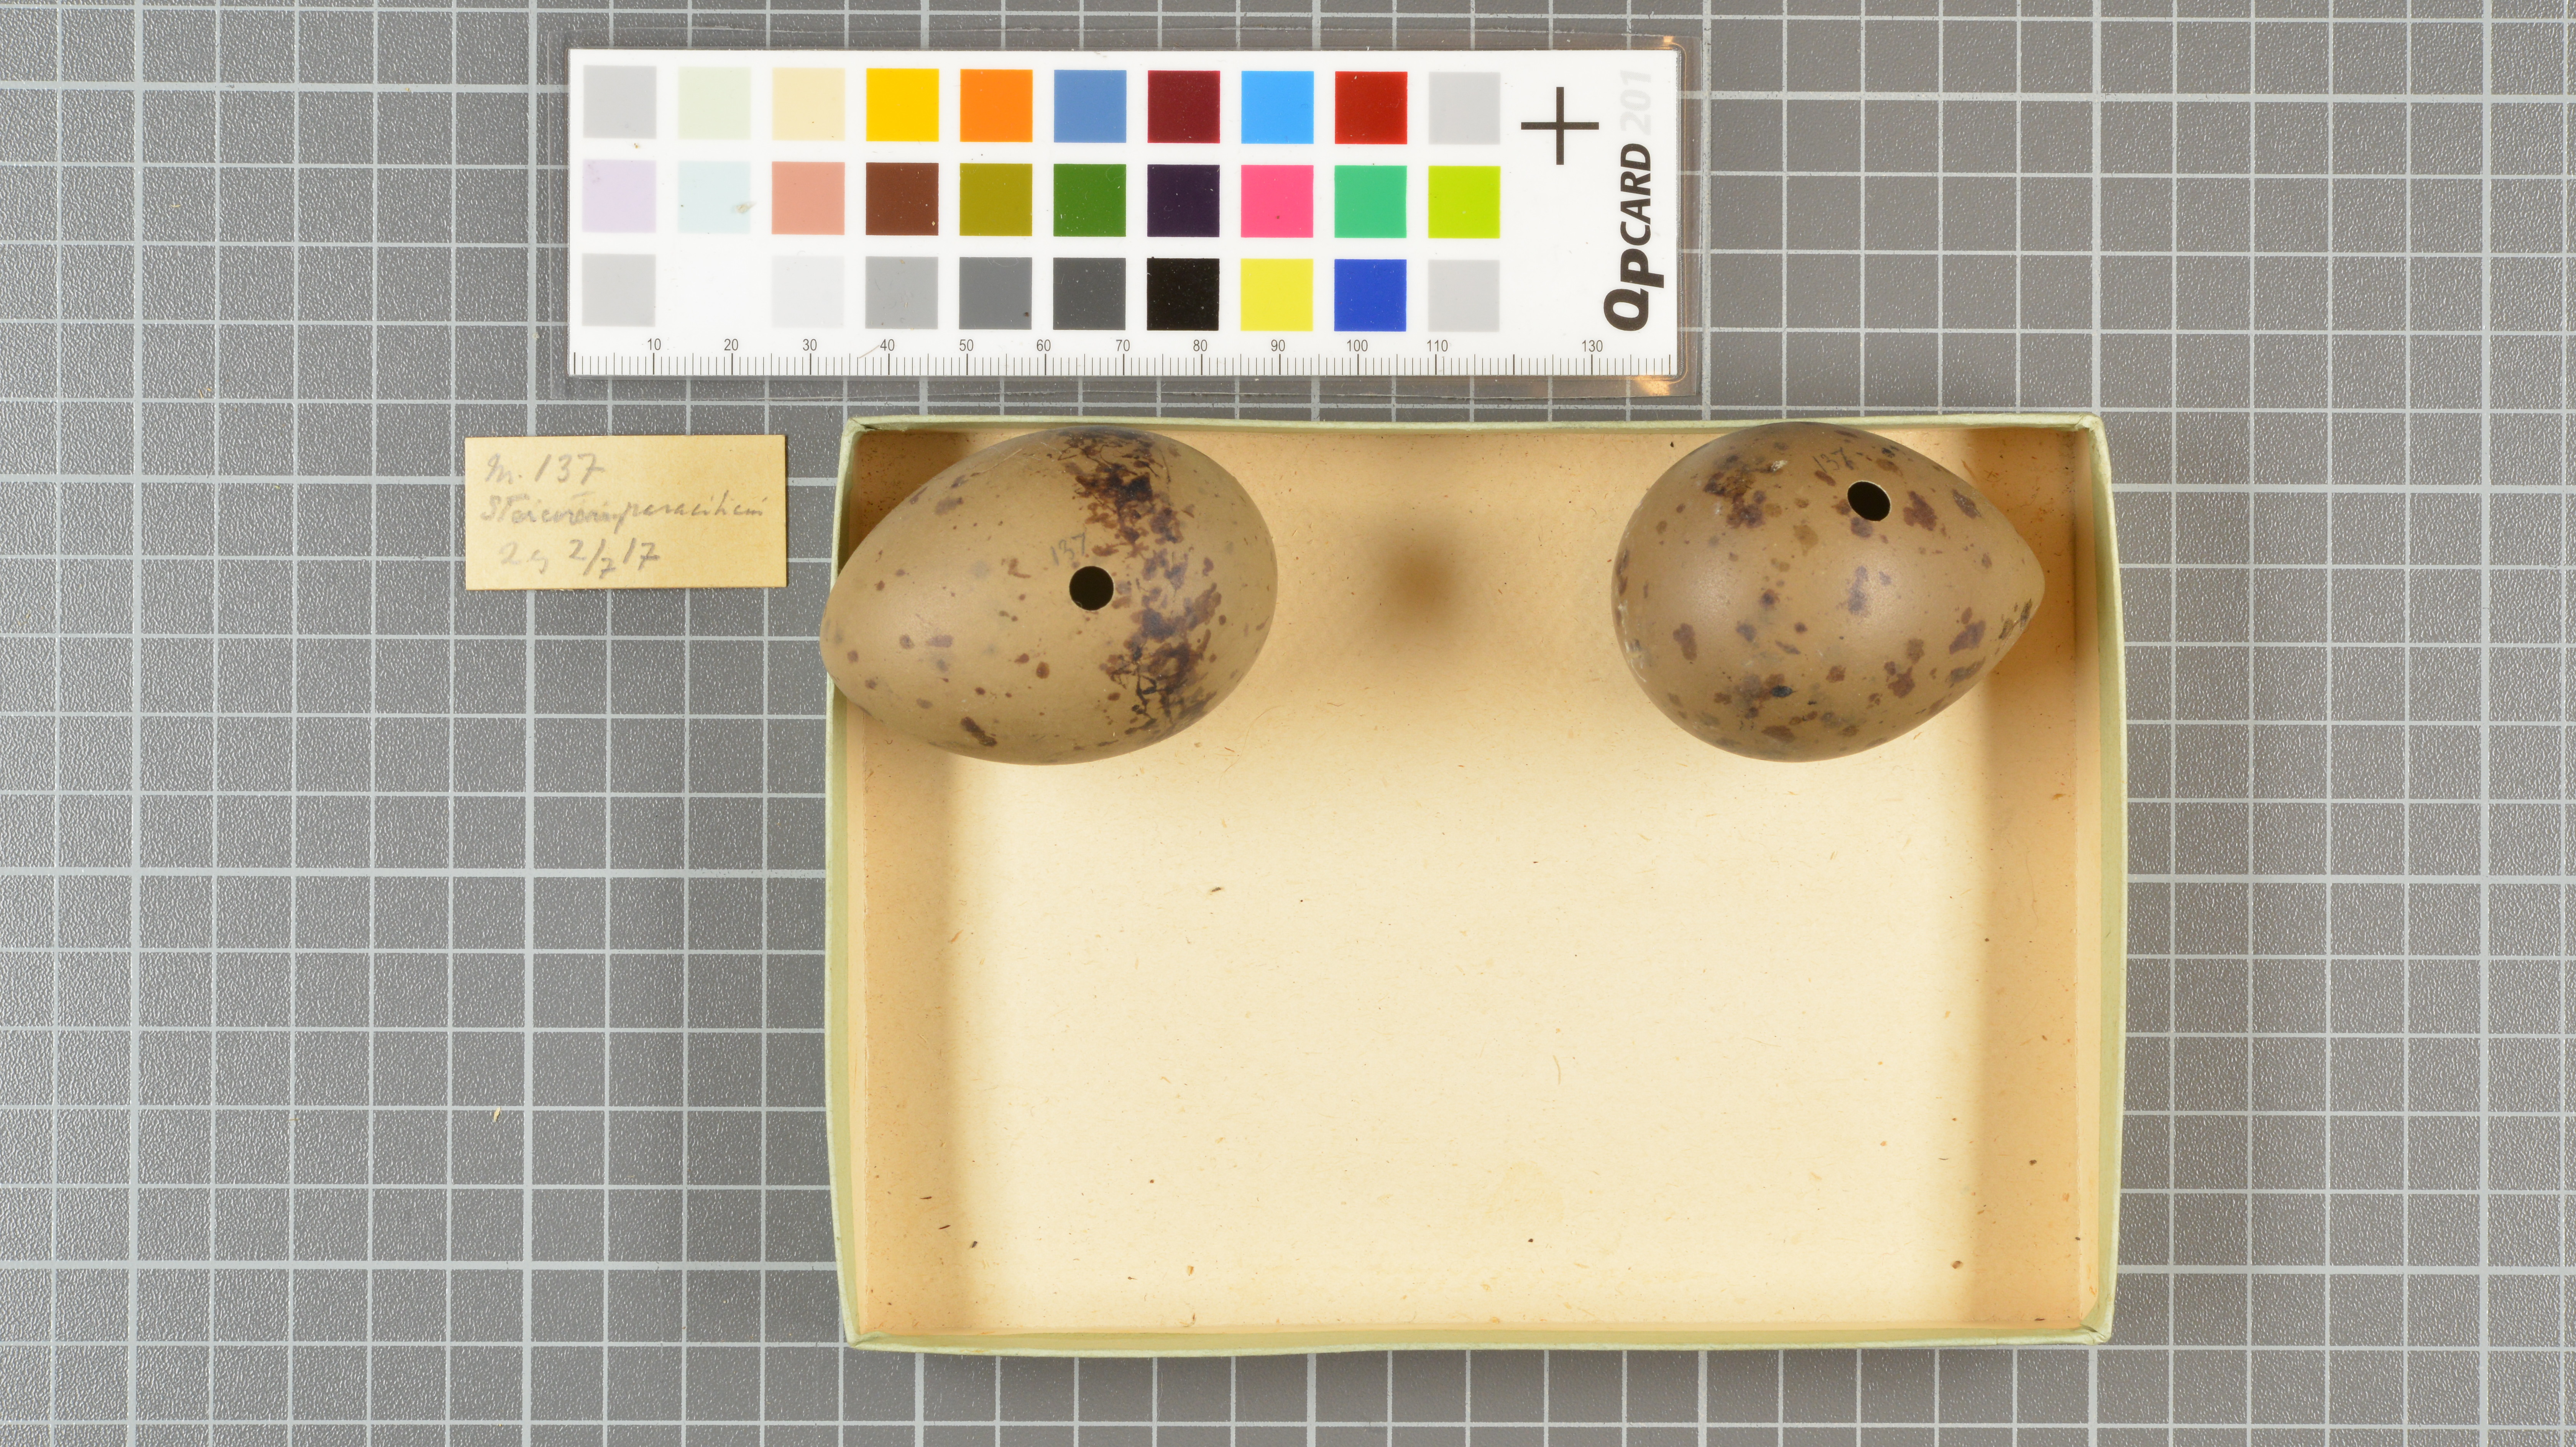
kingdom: Animalia
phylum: Chordata
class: Aves
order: Charadriiformes
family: Stercorariidae
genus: Stercorarius
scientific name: Stercorarius parasiticus
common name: Parasitic jaeger
